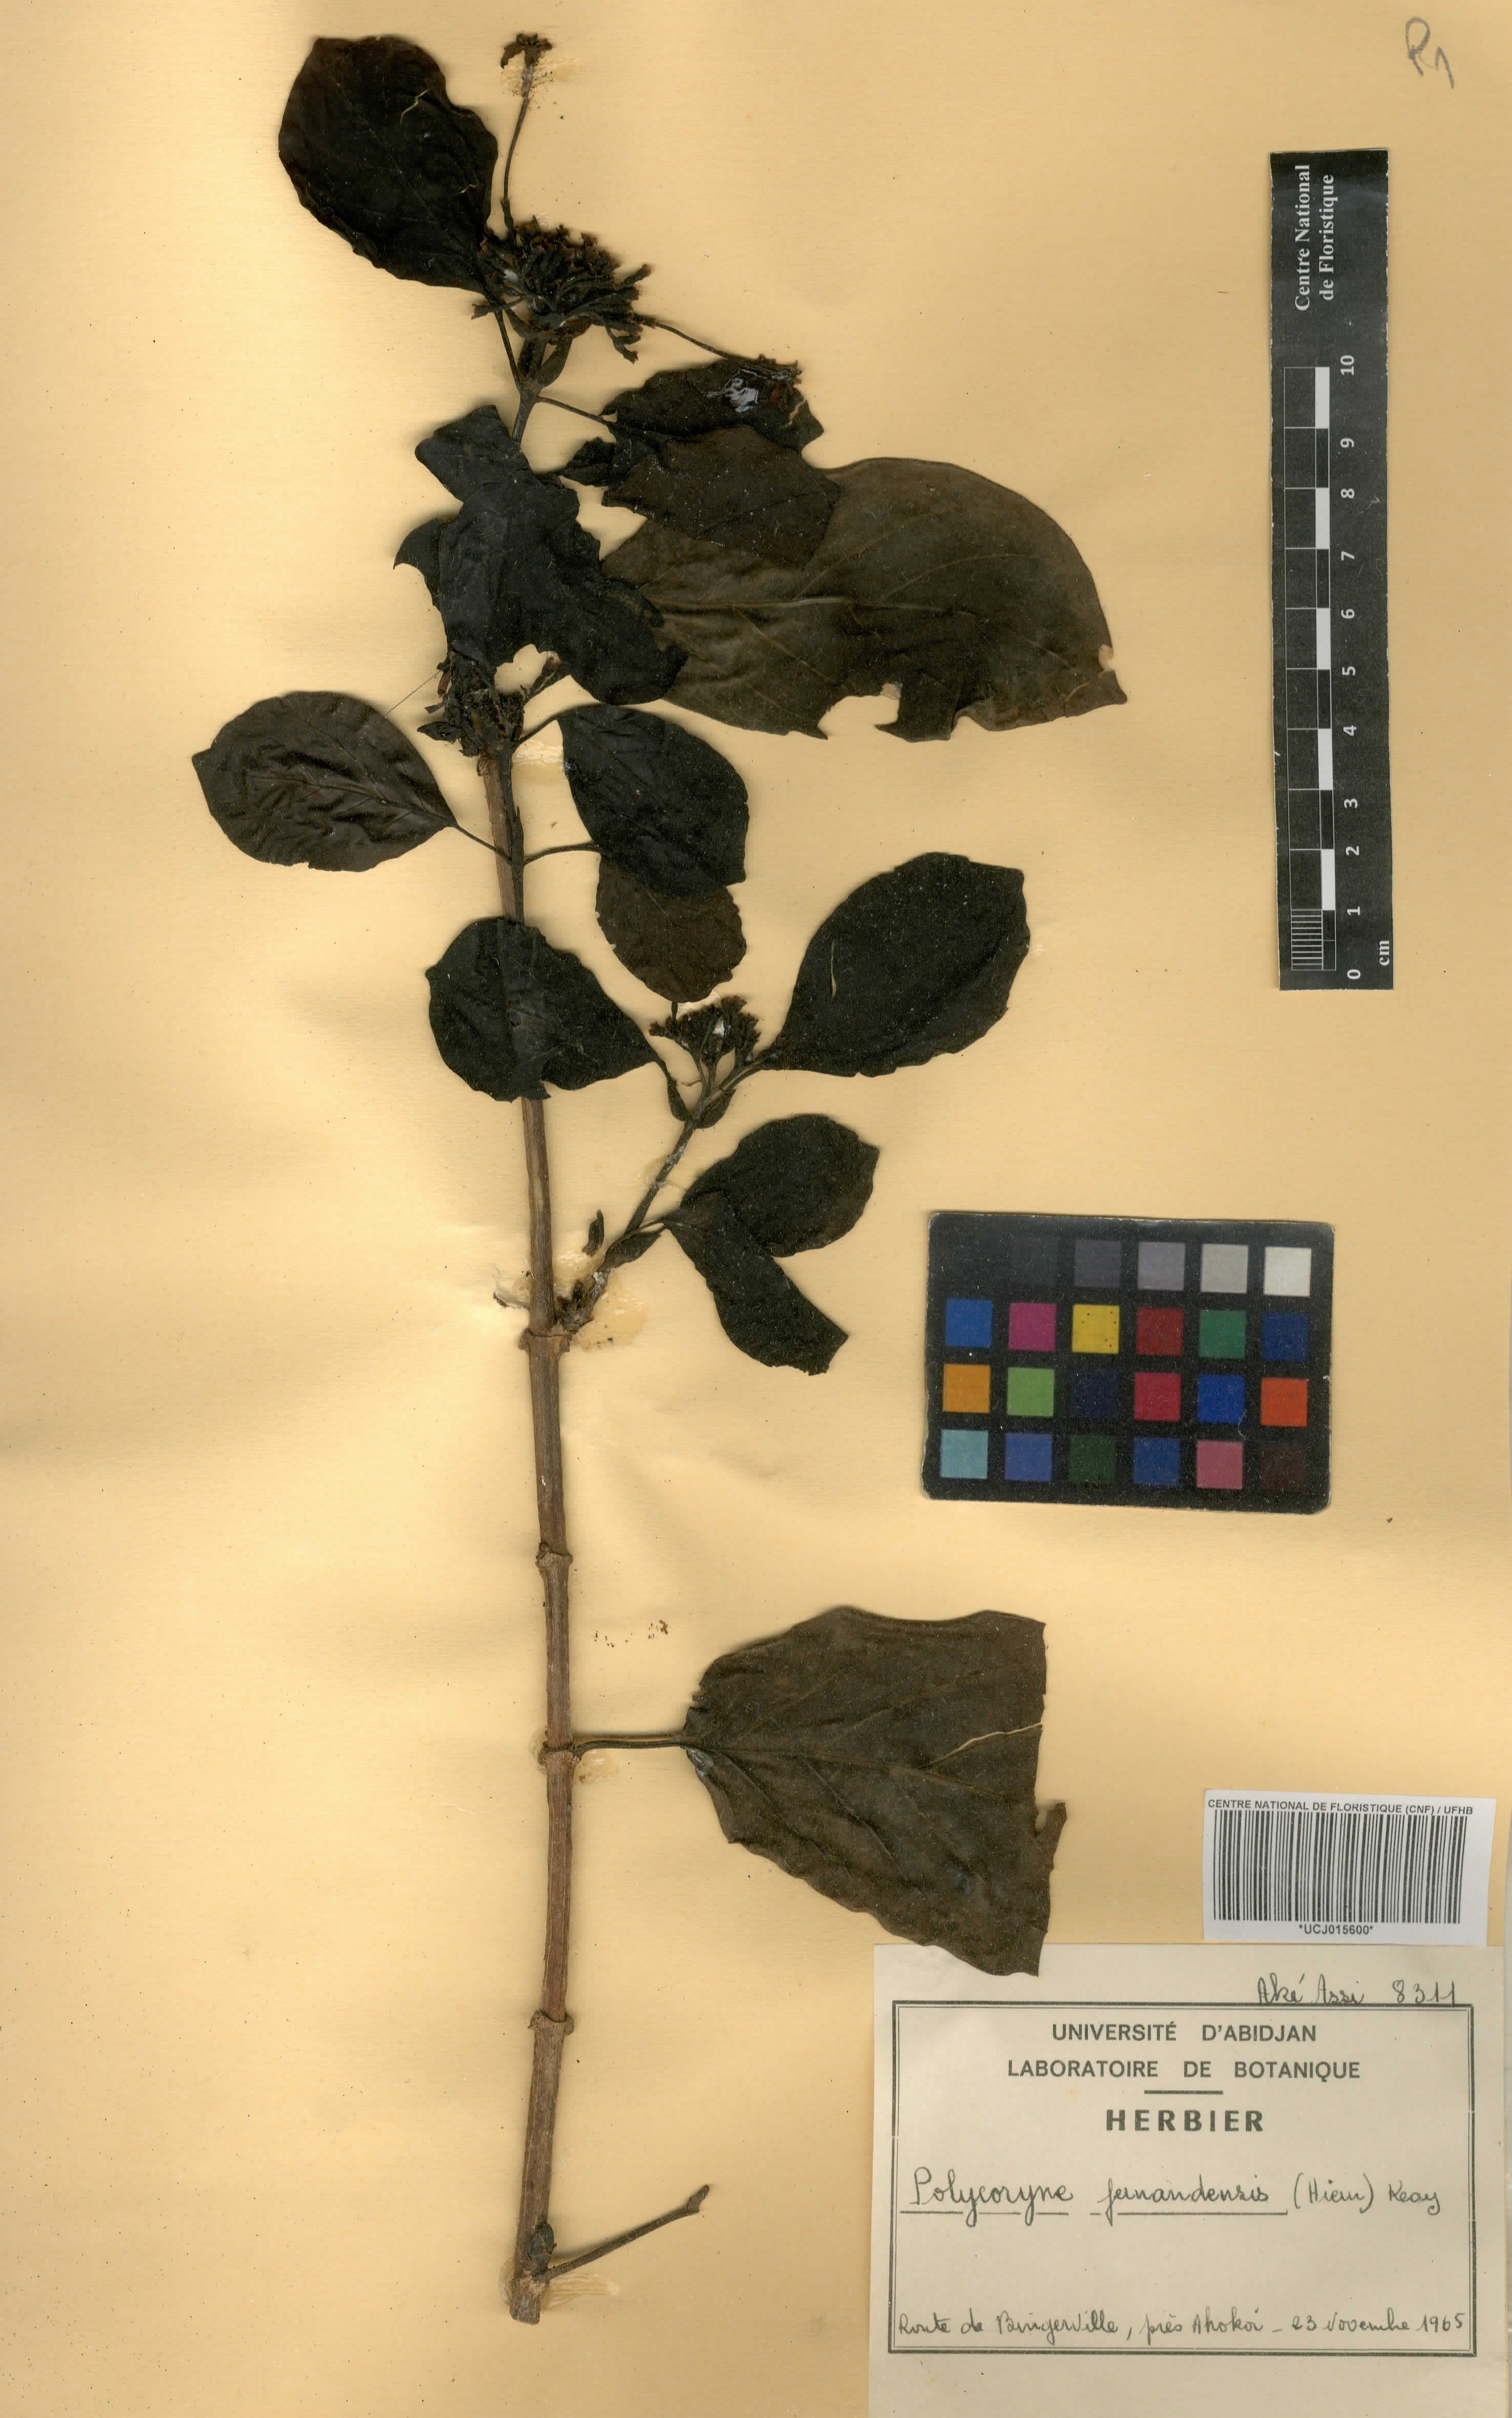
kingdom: Plantae
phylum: Tracheophyta
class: Magnoliopsida
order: Gentianales
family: Rubiaceae
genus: Pleiocoryne
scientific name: Pleiocoryne fernandensis
